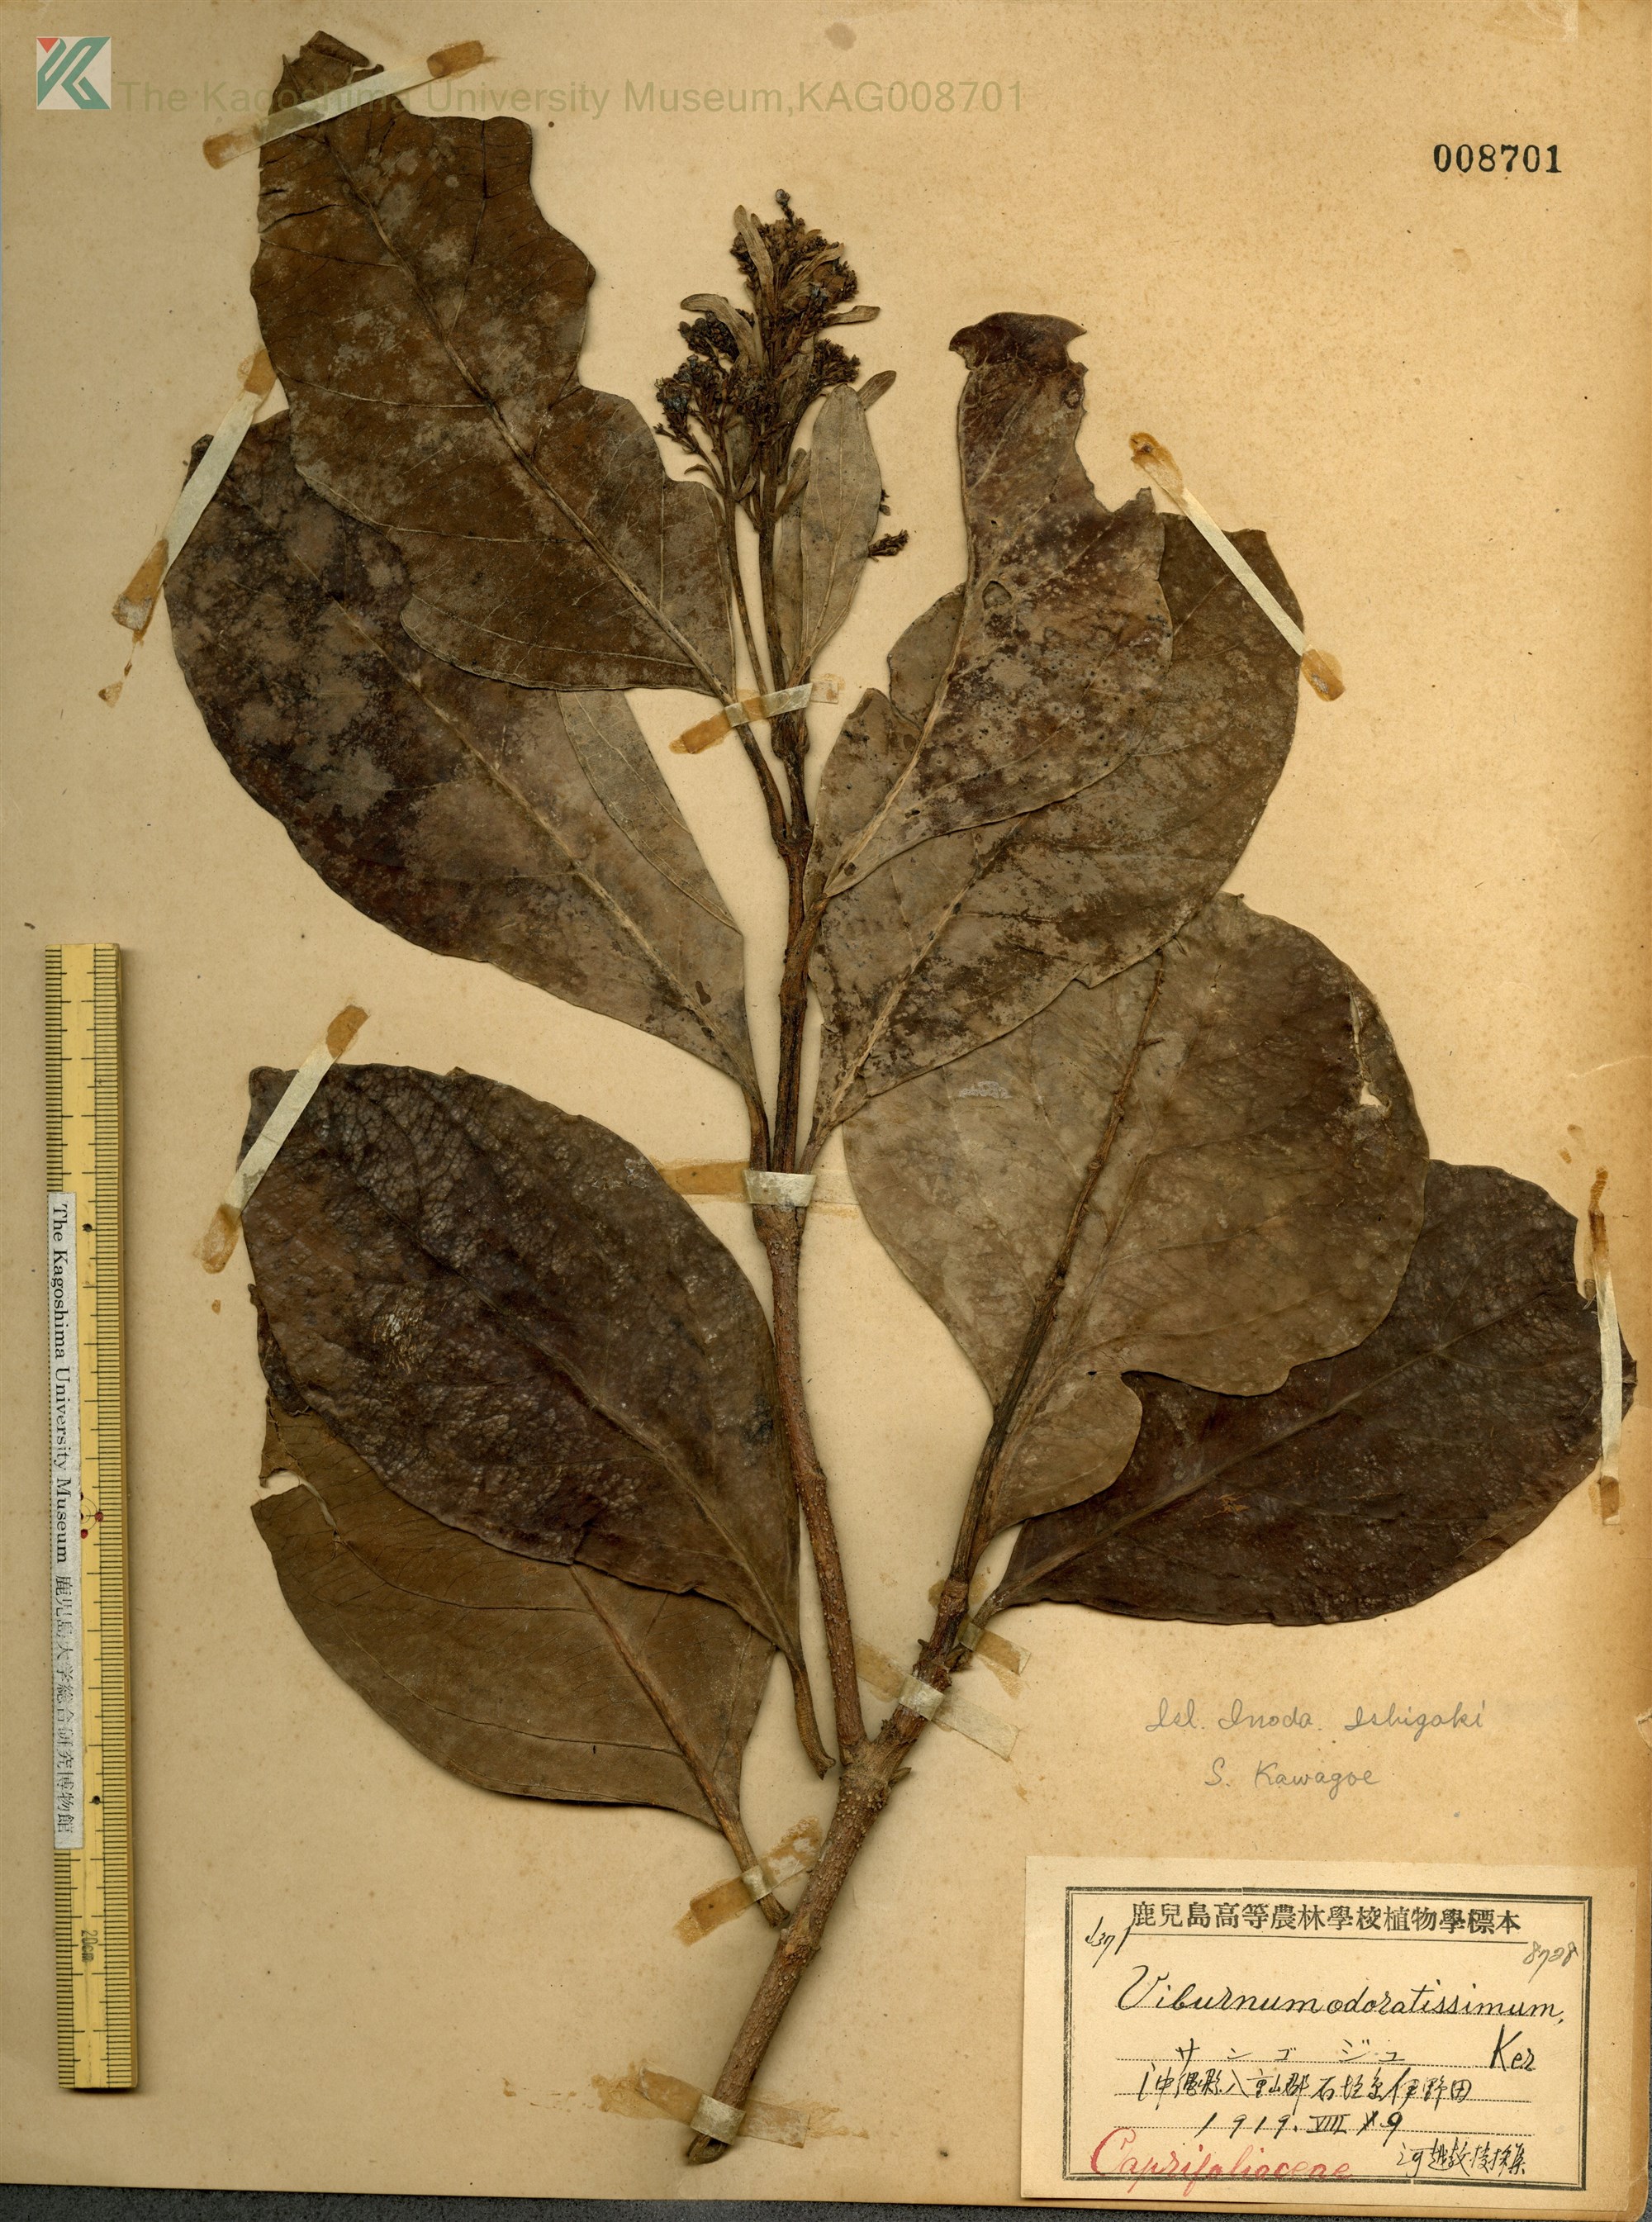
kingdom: Plantae
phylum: Tracheophyta
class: Magnoliopsida
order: Dipsacales
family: Viburnaceae
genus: Viburnum
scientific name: Viburnum odoratissimum
